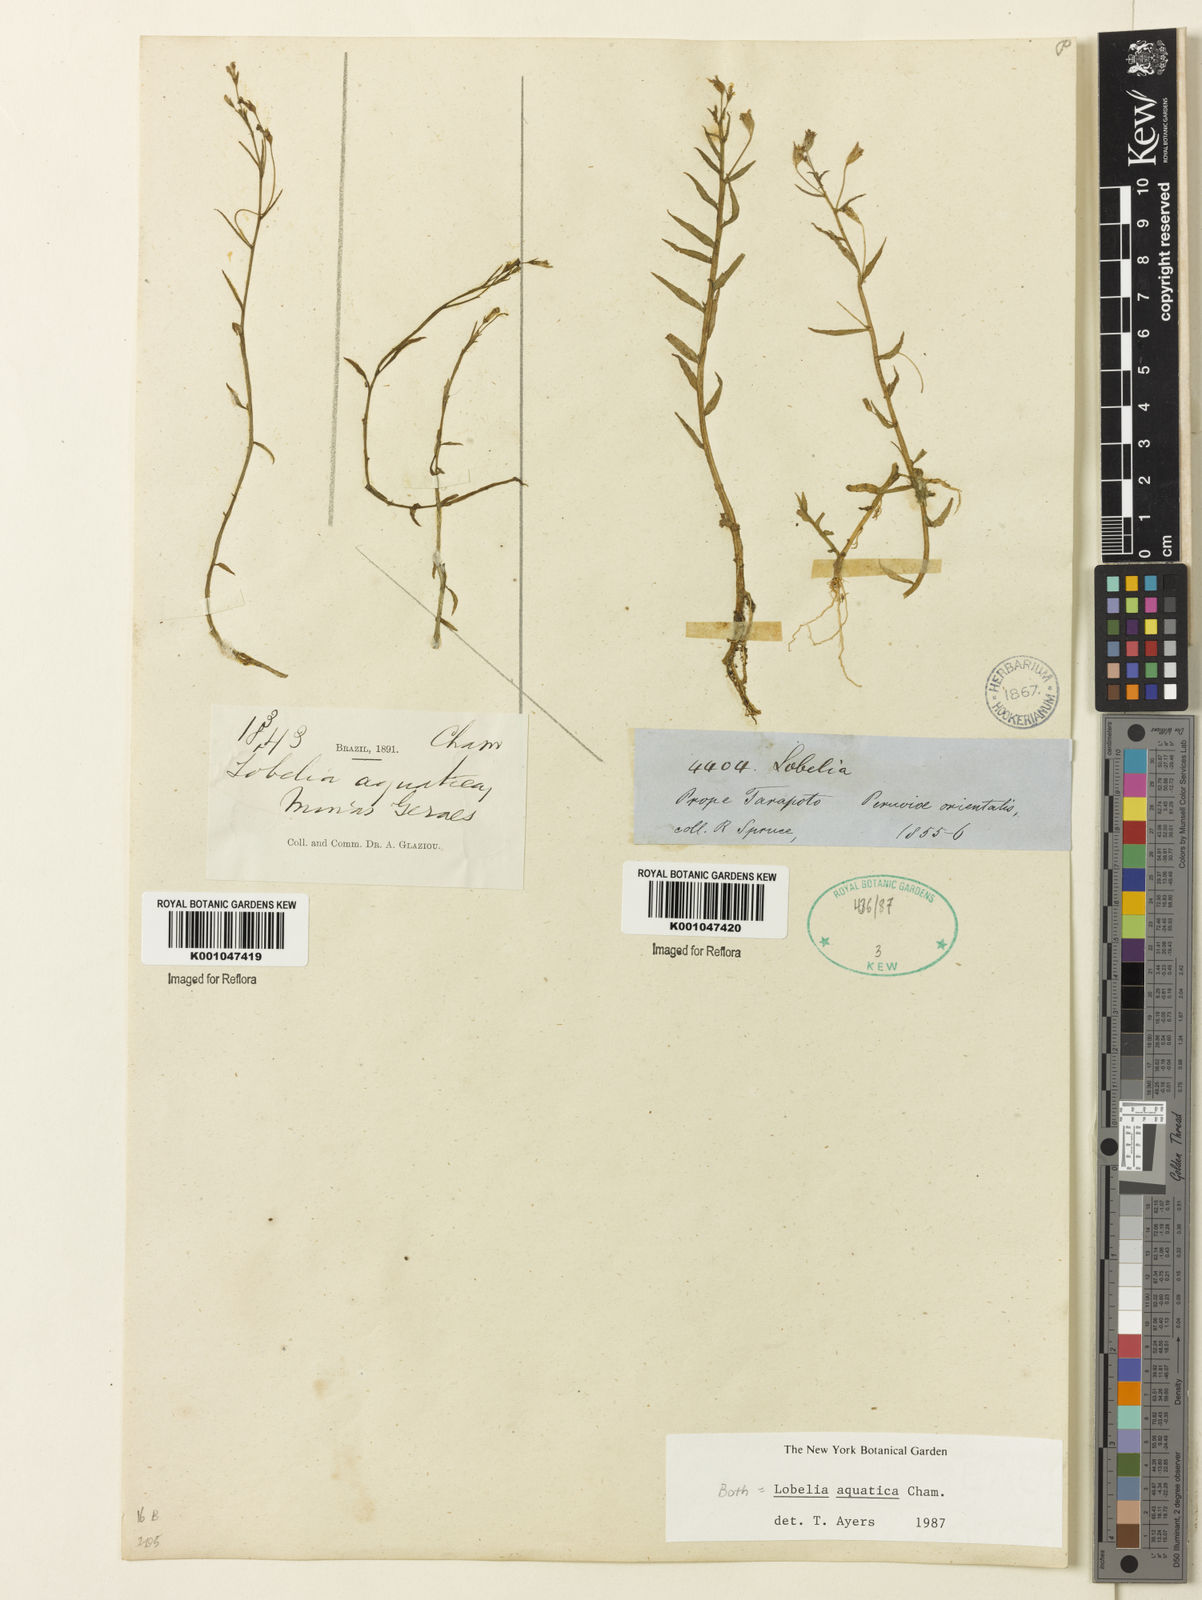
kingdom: Plantae
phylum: Tracheophyta
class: Magnoliopsida
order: Asterales
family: Campanulaceae
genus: Lobelia
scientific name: Lobelia aquatica
